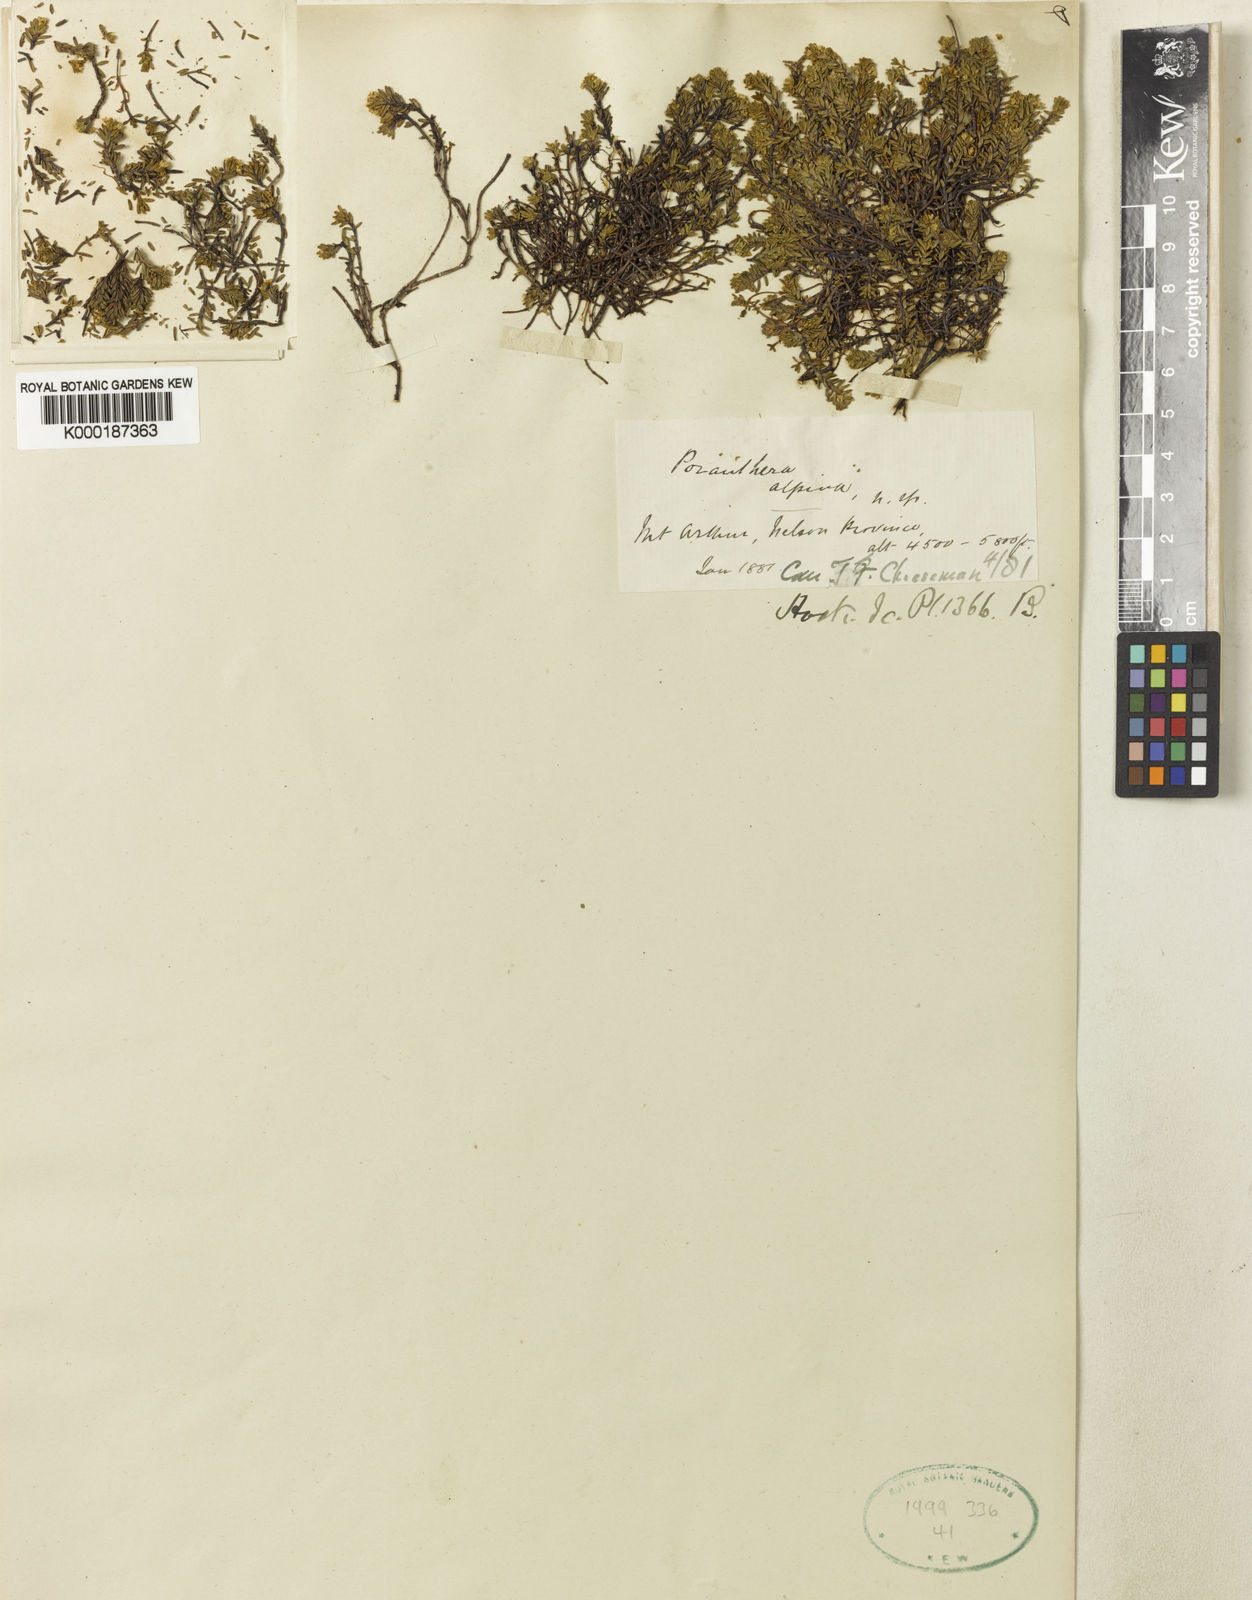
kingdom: Plantae
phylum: Tracheophyta
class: Magnoliopsida
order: Malpighiales
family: Phyllanthaceae
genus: Poranthera
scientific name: Poranthera alpina
